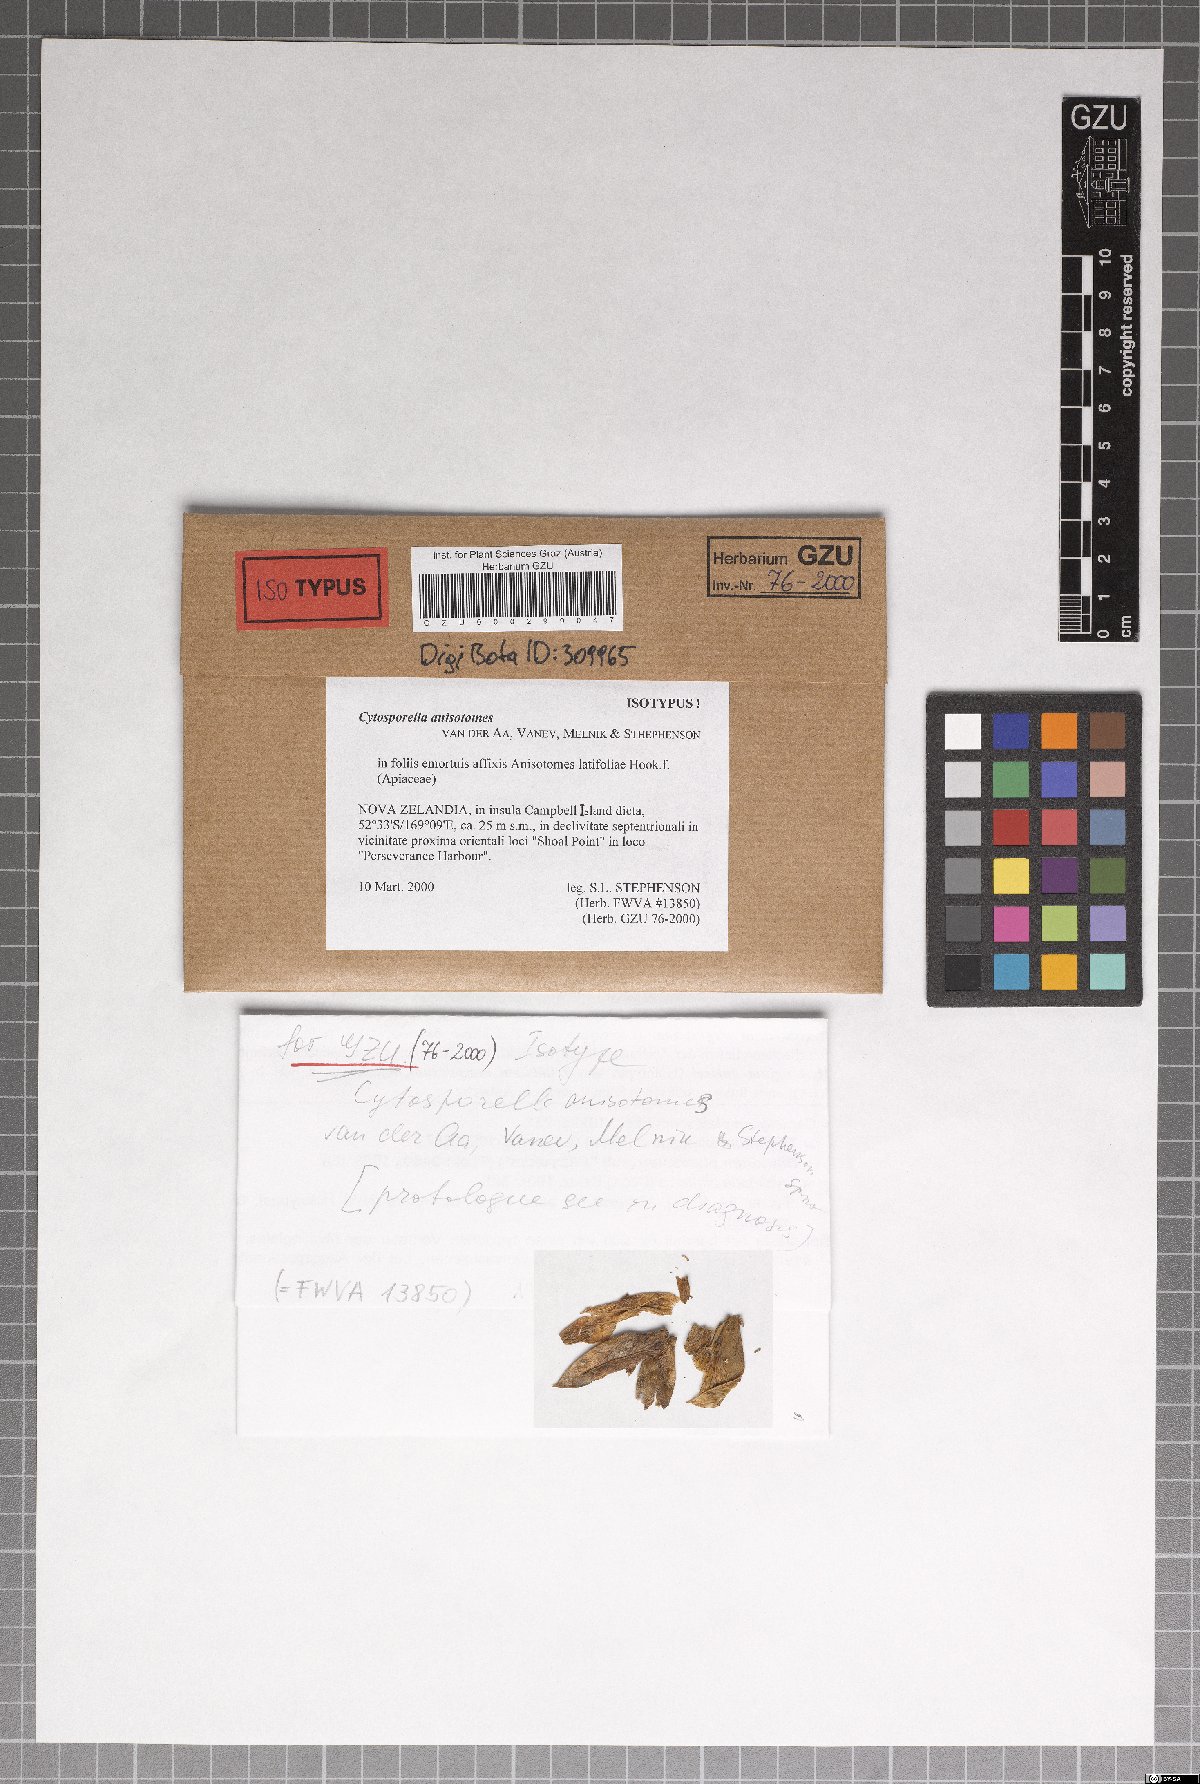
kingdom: Fungi
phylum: Ascomycota
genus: Cytosporella
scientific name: Cytosporella anisotomes
